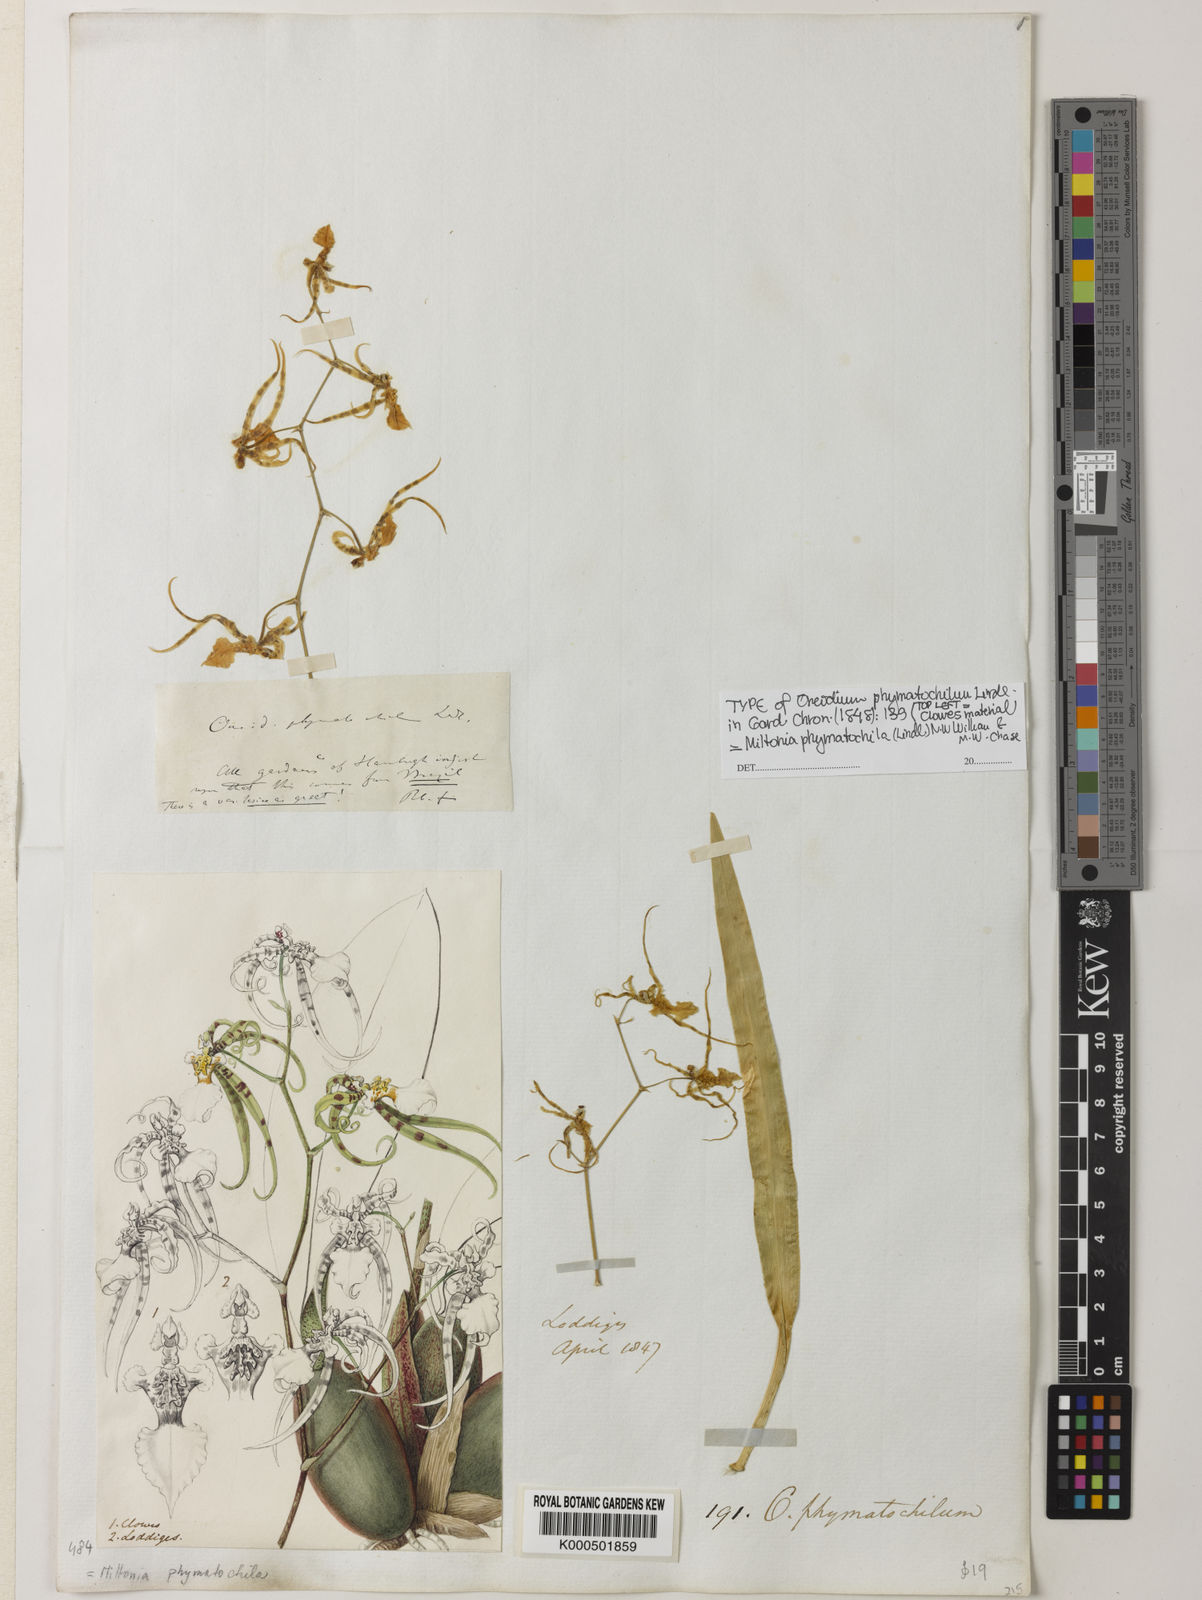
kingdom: Plantae
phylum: Tracheophyta
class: Liliopsida
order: Asparagales
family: Orchidaceae
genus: Miltonia
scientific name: Miltonia phymatochila
